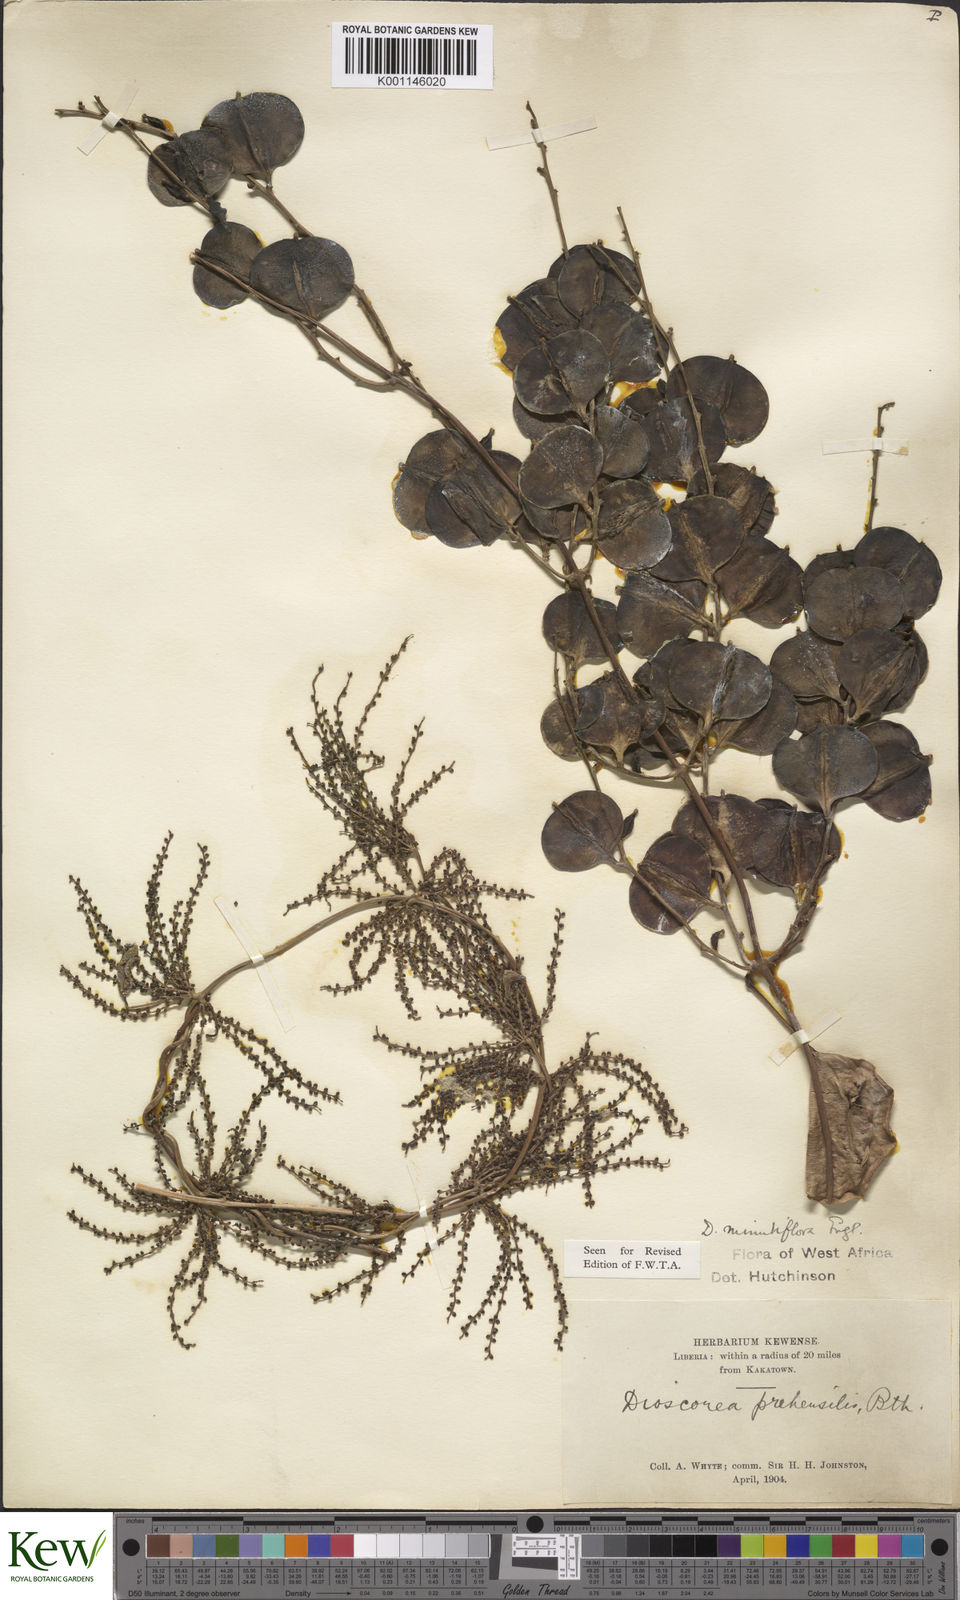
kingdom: Plantae
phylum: Tracheophyta
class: Liliopsida
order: Dioscoreales
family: Dioscoreaceae
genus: Dioscorea
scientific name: Dioscorea minutiflora
